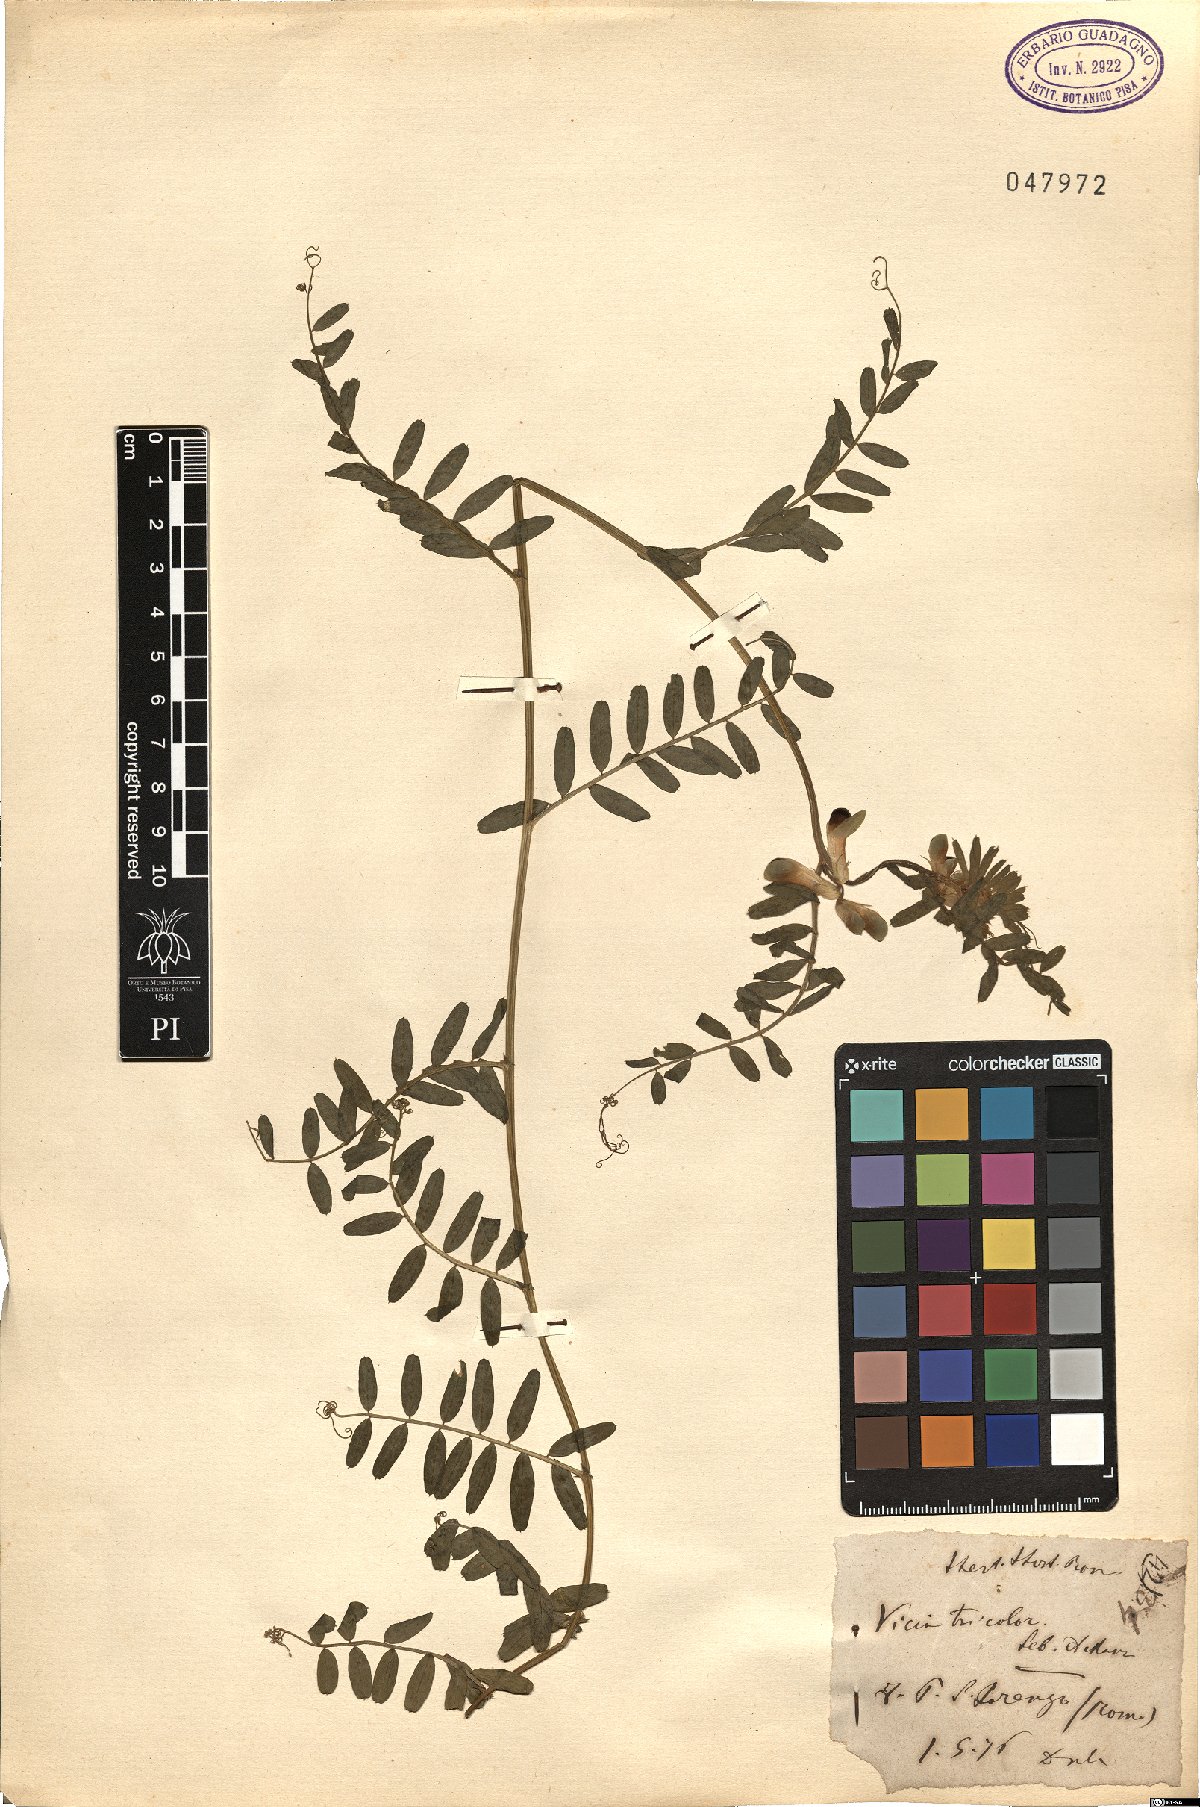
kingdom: Plantae
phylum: Tracheophyta
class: Magnoliopsida
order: Fabales
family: Fabaceae
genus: Vicia
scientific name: Vicia sepium
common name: Bush vetch
